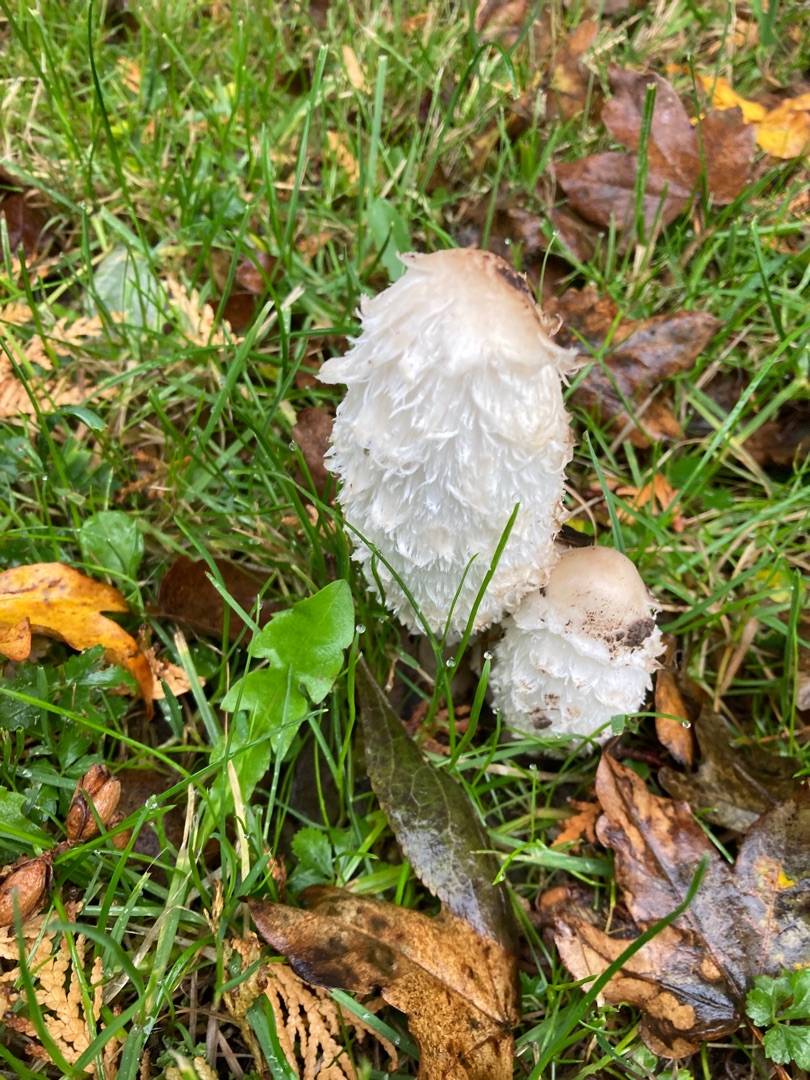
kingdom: Fungi
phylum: Basidiomycota
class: Agaricomycetes
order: Agaricales
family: Agaricaceae
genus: Coprinus
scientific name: Coprinus comatus
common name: Stor parykhat
